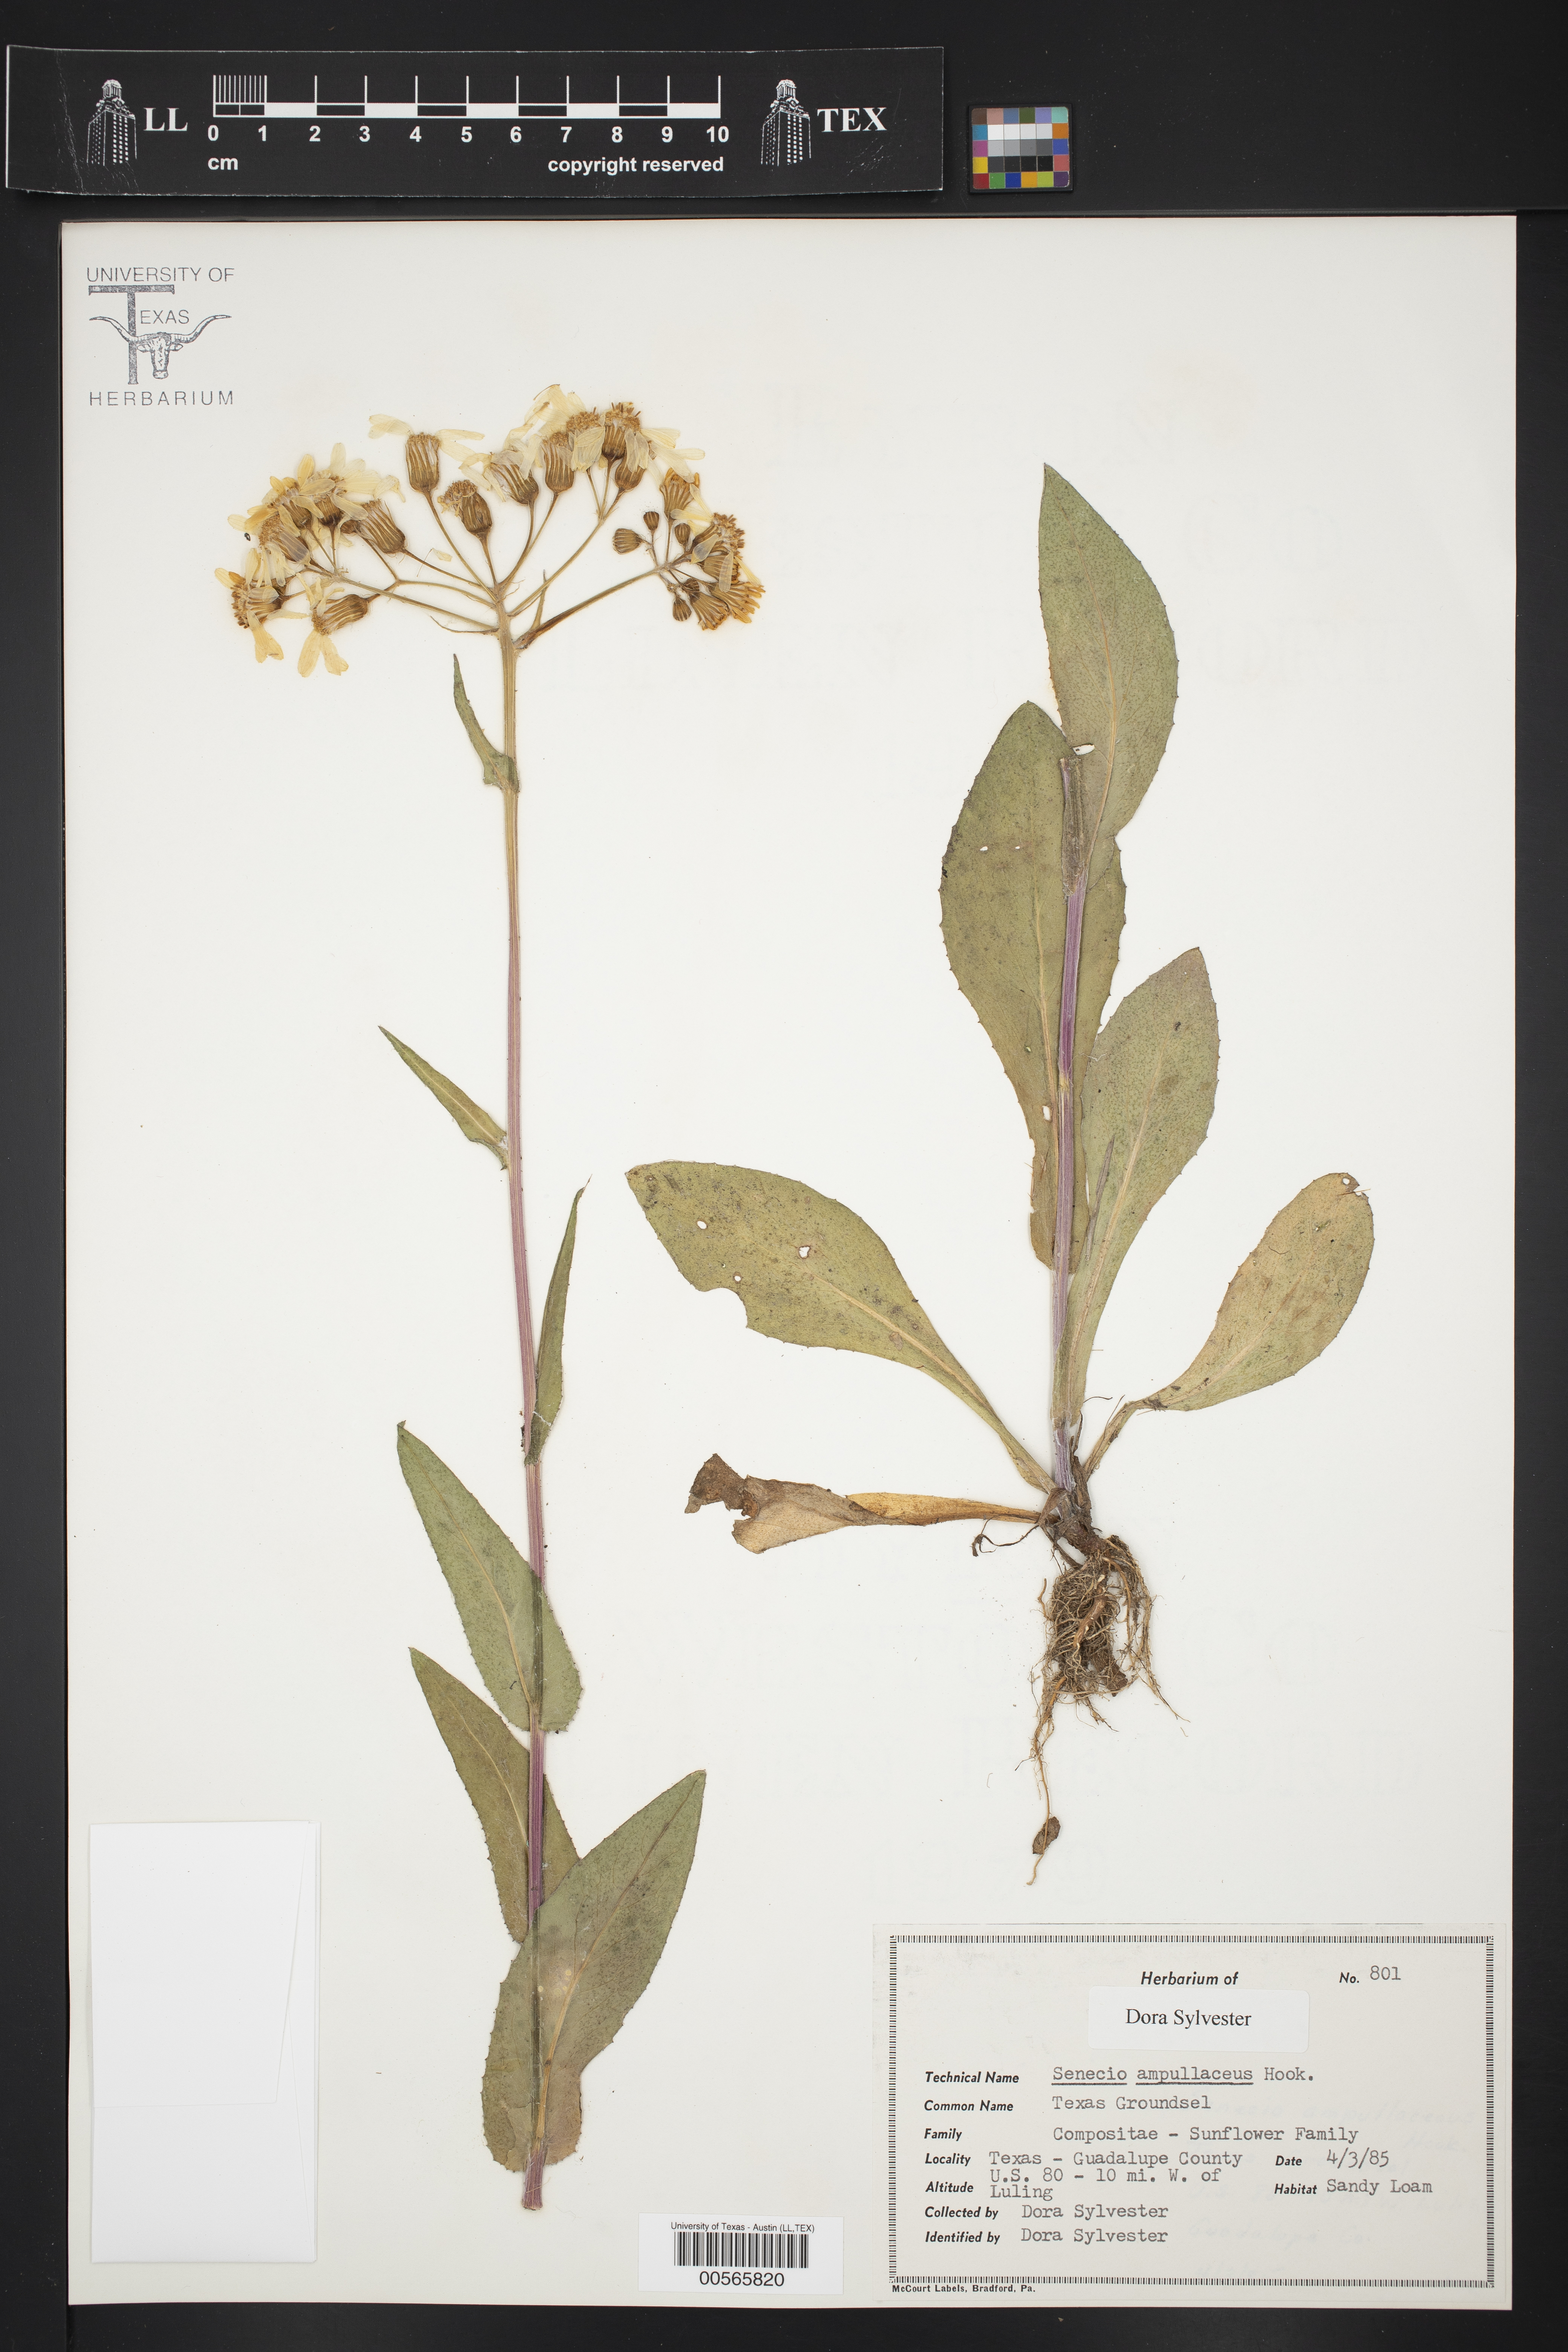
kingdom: Plantae
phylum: Tracheophyta
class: Magnoliopsida
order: Asterales
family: Asteraceae
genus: Senecio
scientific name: Senecio ampullaceus
